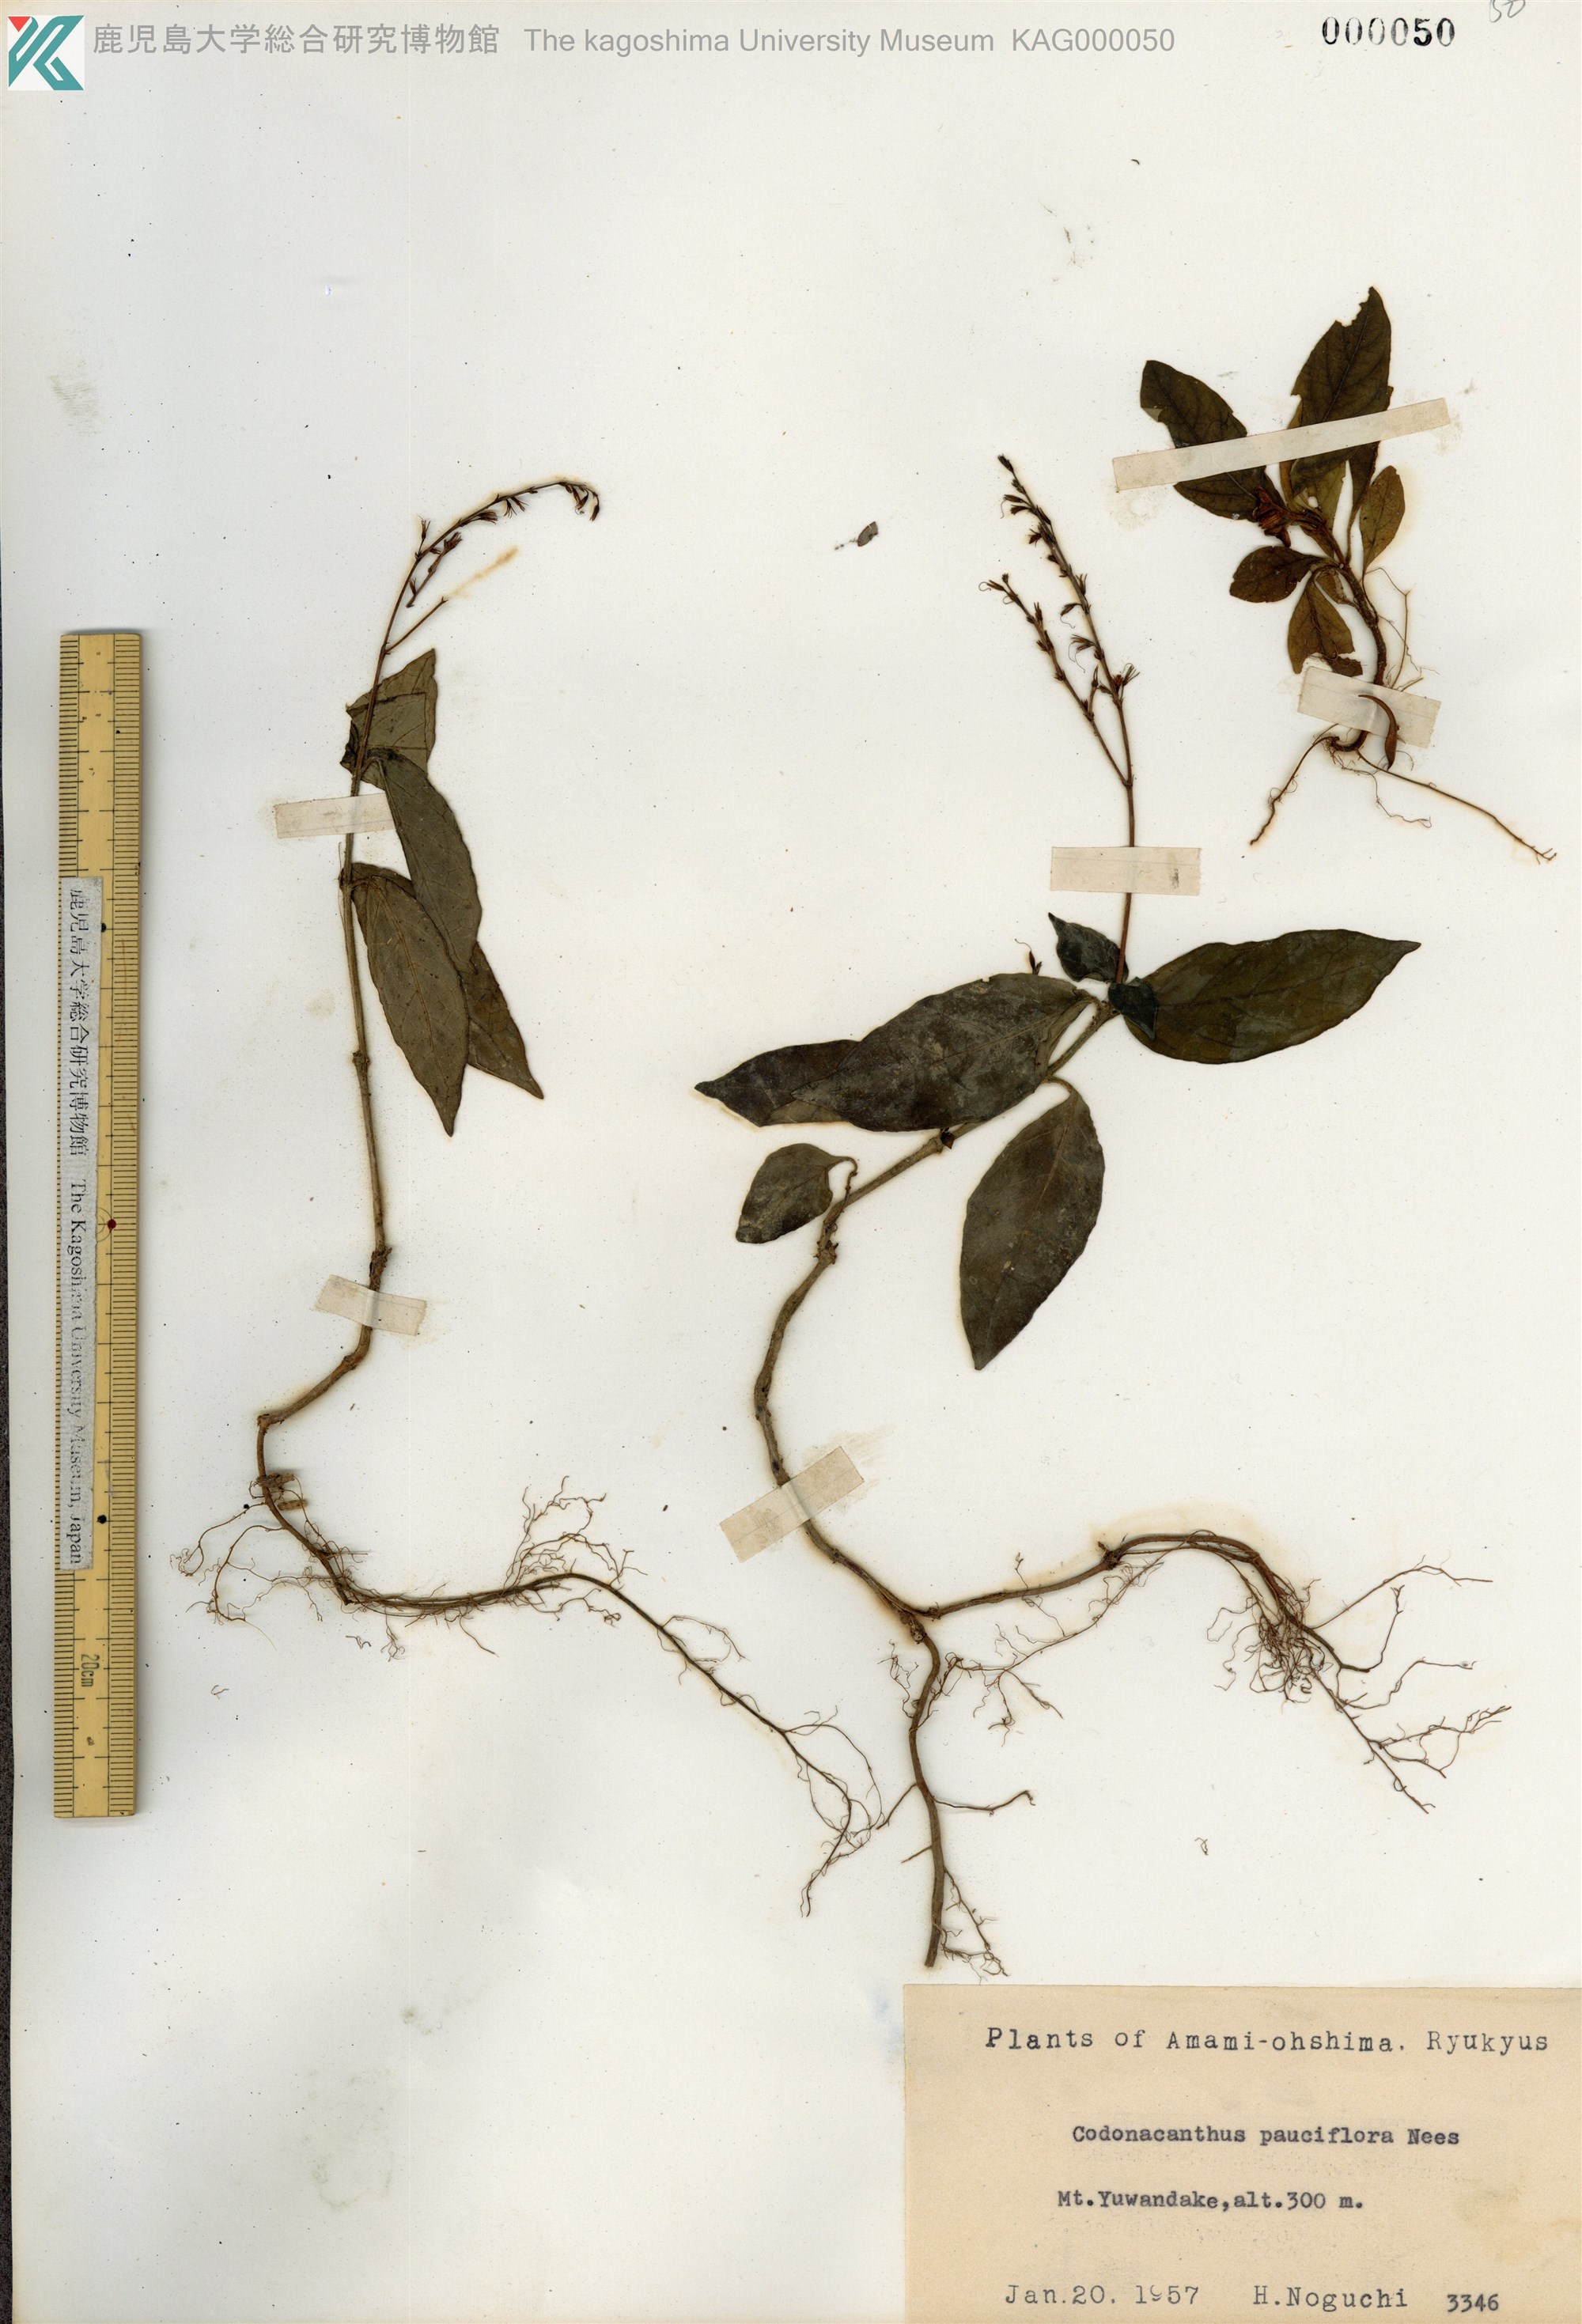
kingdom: Plantae
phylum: Tracheophyta
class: Magnoliopsida
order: Lamiales
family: Acanthaceae
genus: Codonacanthus
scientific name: Codonacanthus pauciflorus
